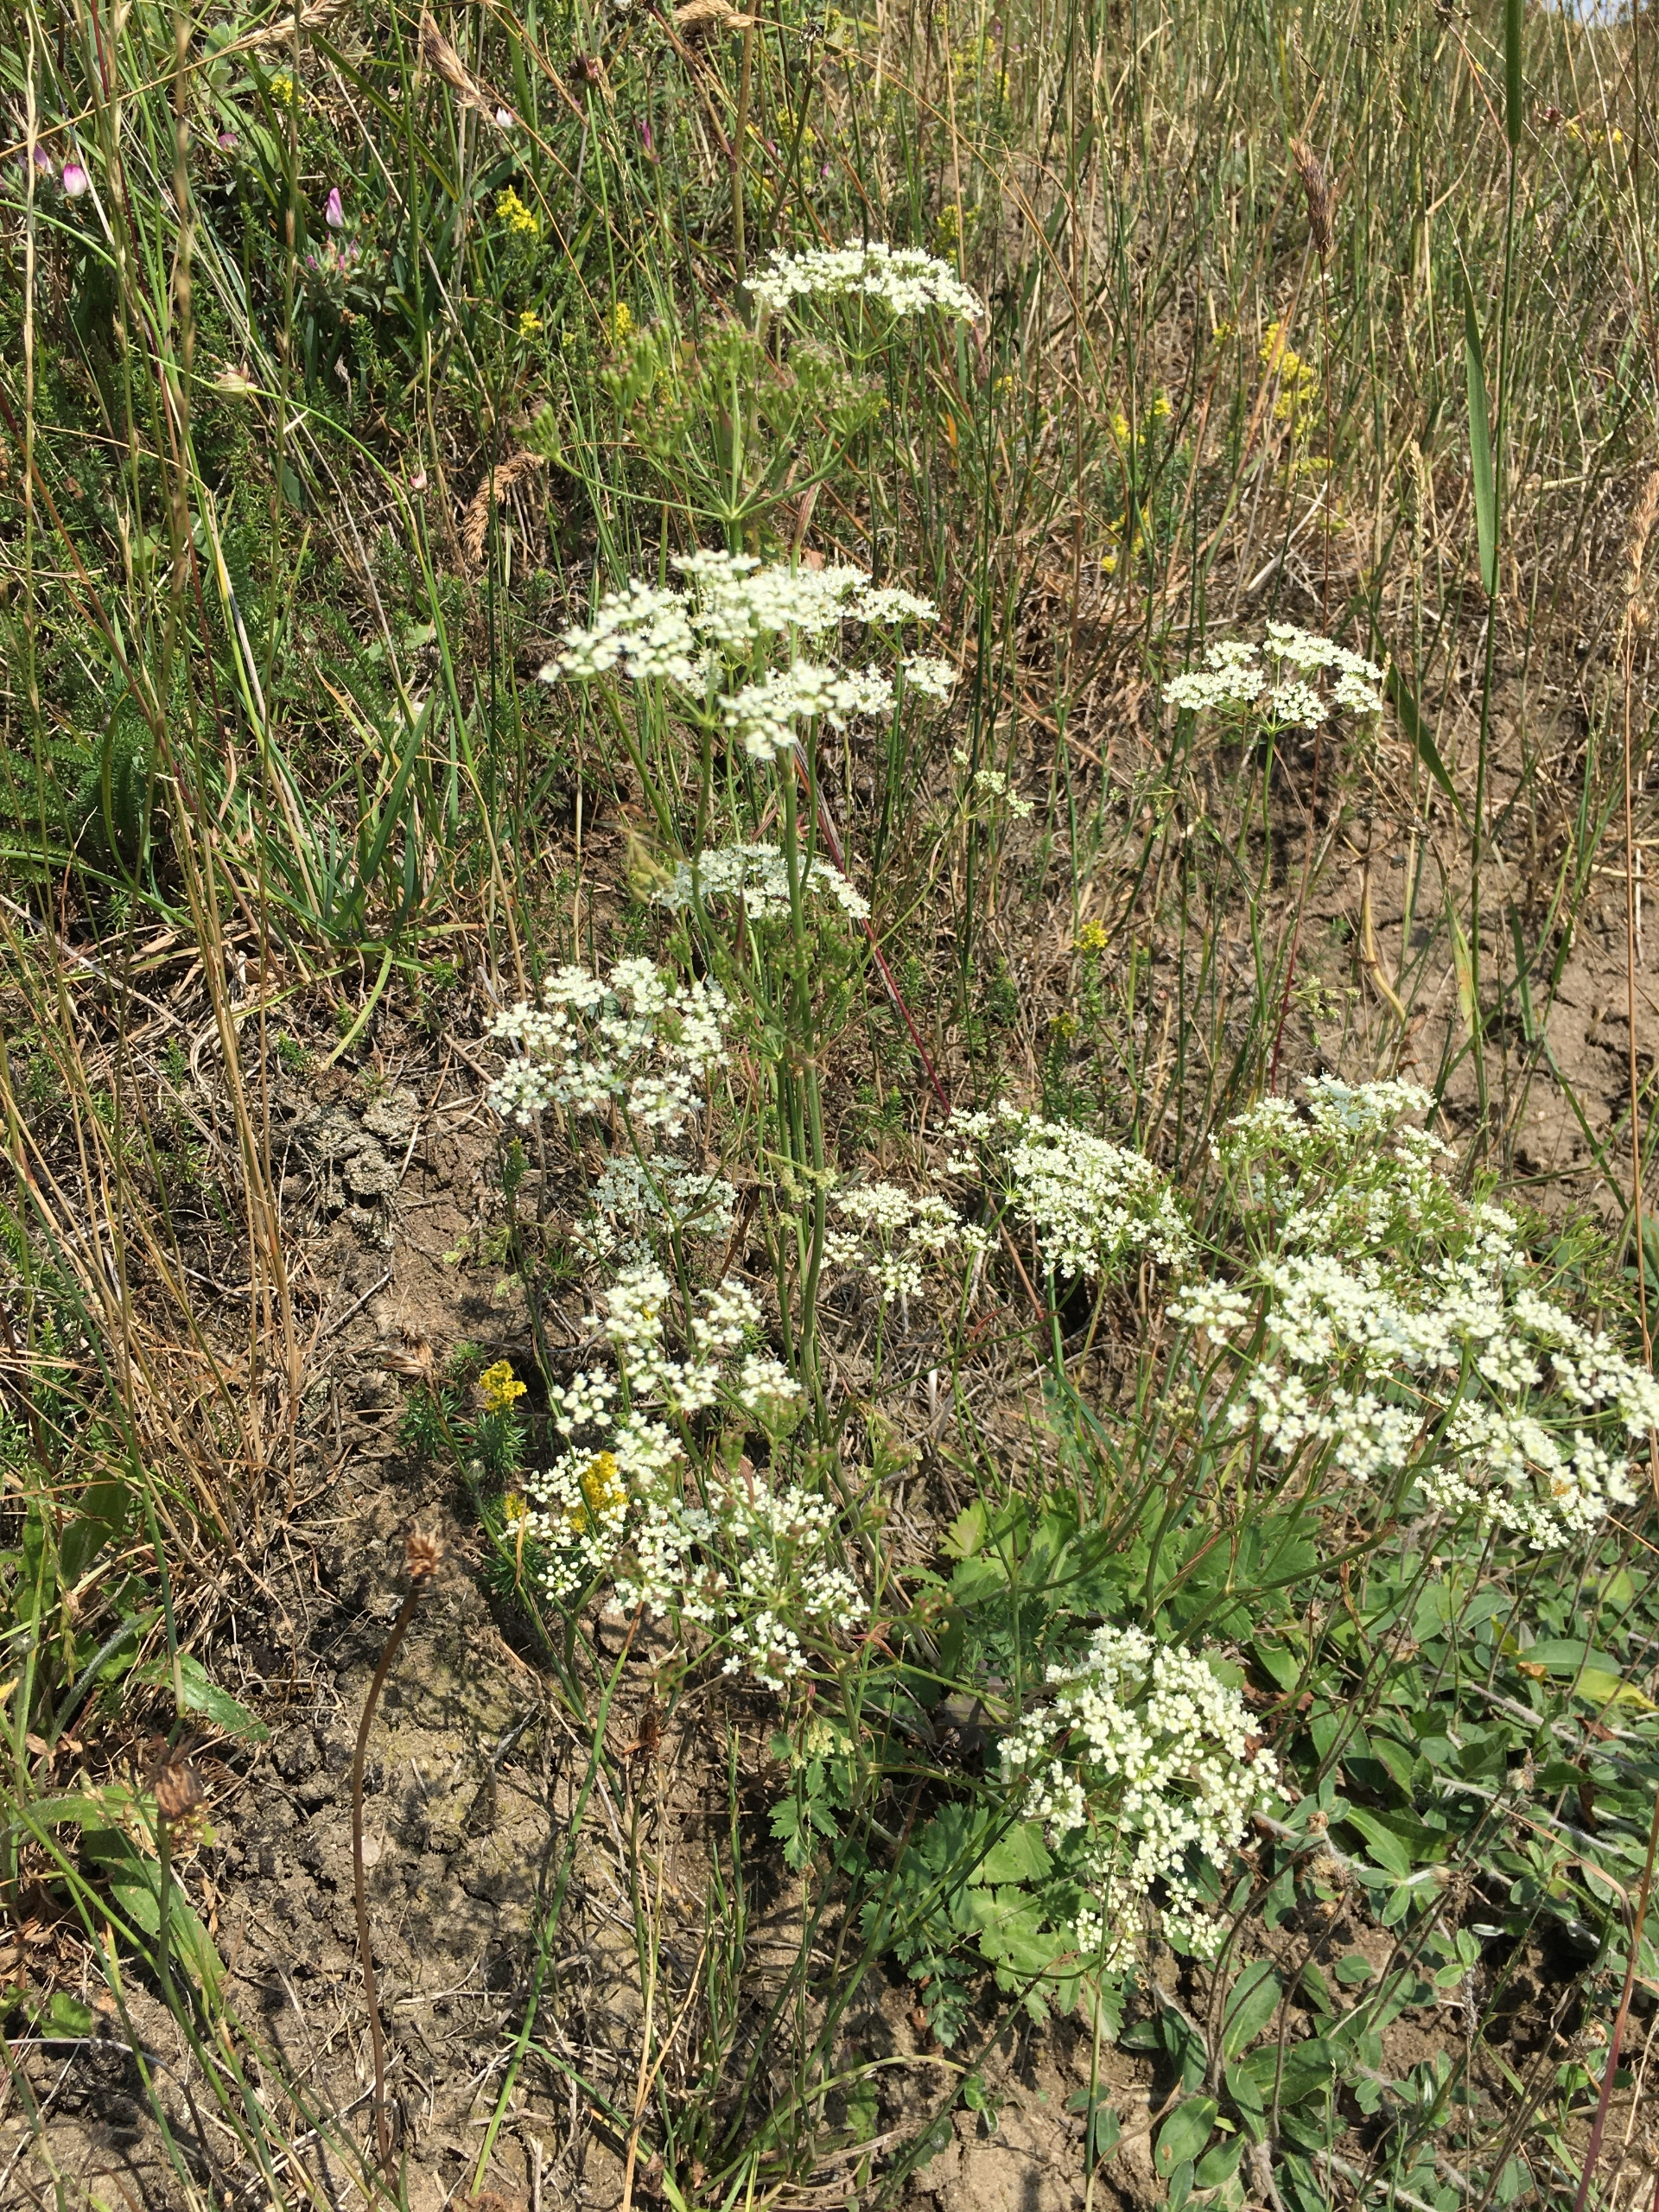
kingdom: Plantae
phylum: Tracheophyta
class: Magnoliopsida
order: Apiales
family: Apiaceae
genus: Pimpinella
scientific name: Pimpinella saxifraga
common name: Almindelig pimpinelle
